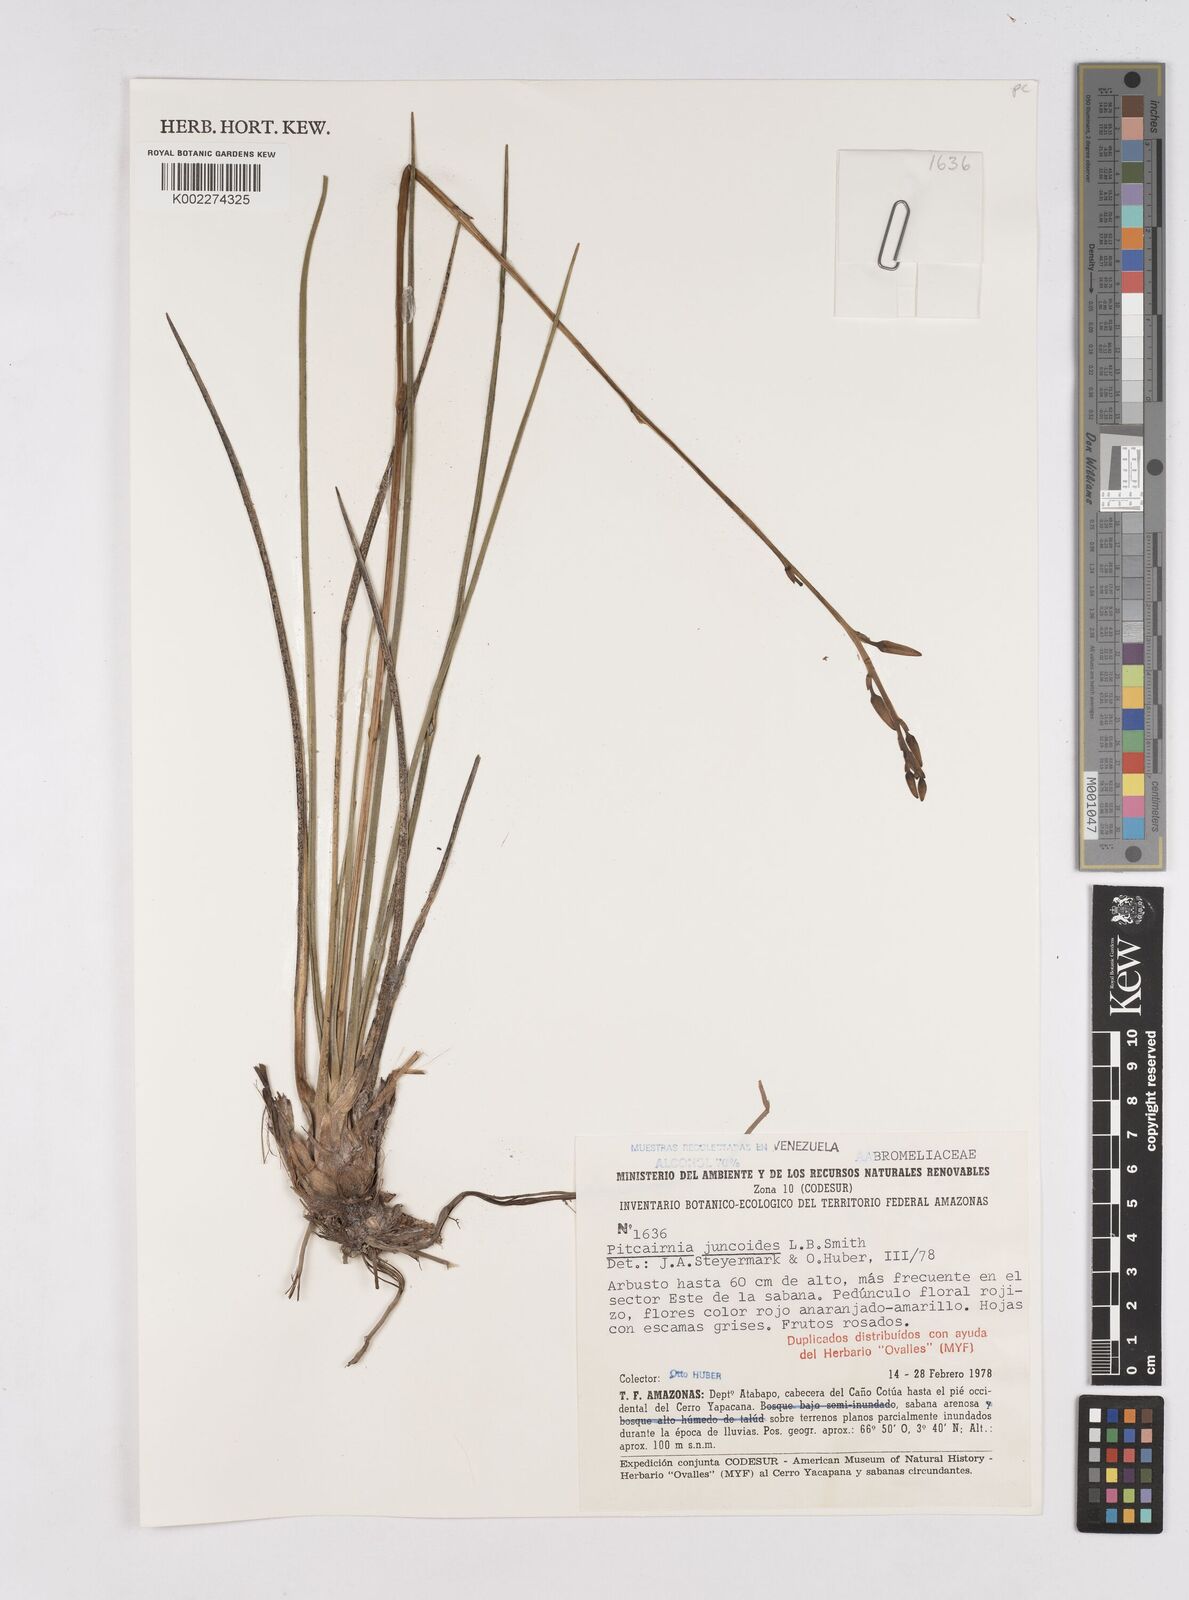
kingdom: Plantae
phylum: Tracheophyta
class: Liliopsida
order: Poales
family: Bromeliaceae
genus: Pitcairnia
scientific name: Pitcairnia juncoides
